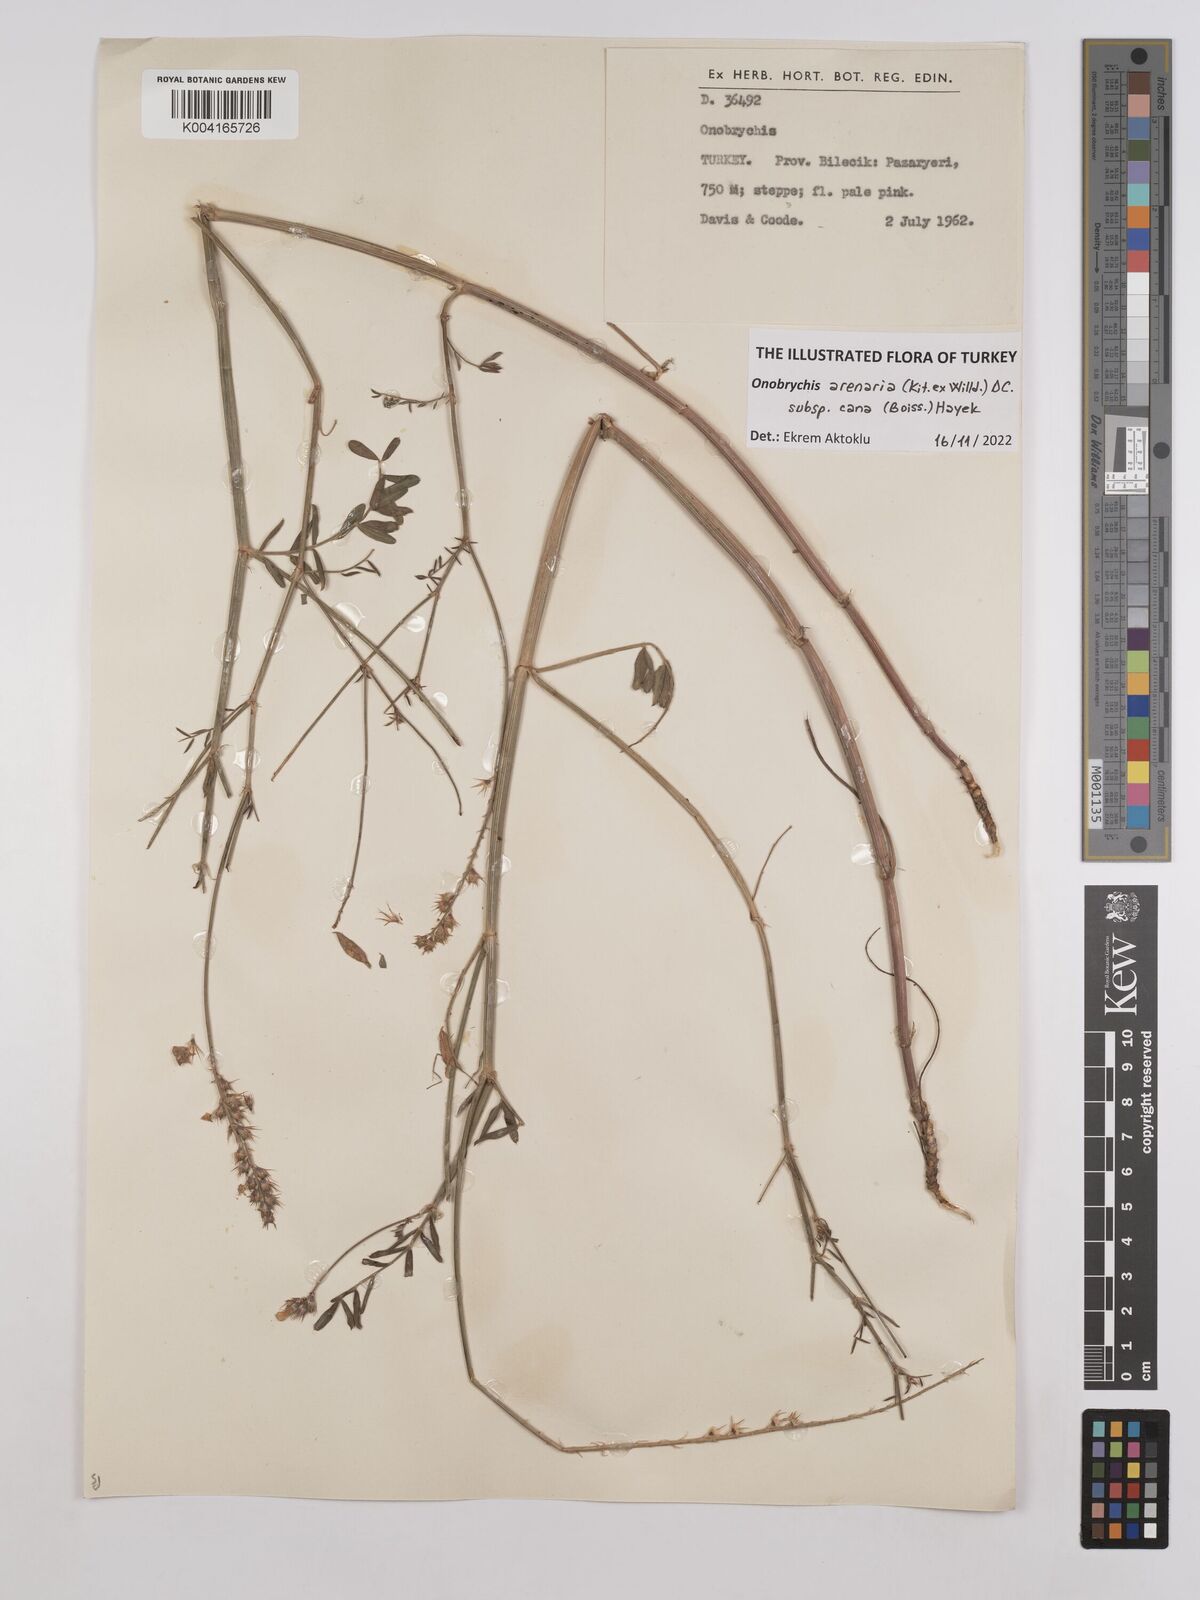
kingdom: Plantae
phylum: Tracheophyta
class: Magnoliopsida
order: Fabales
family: Fabaceae
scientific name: Fabaceae
